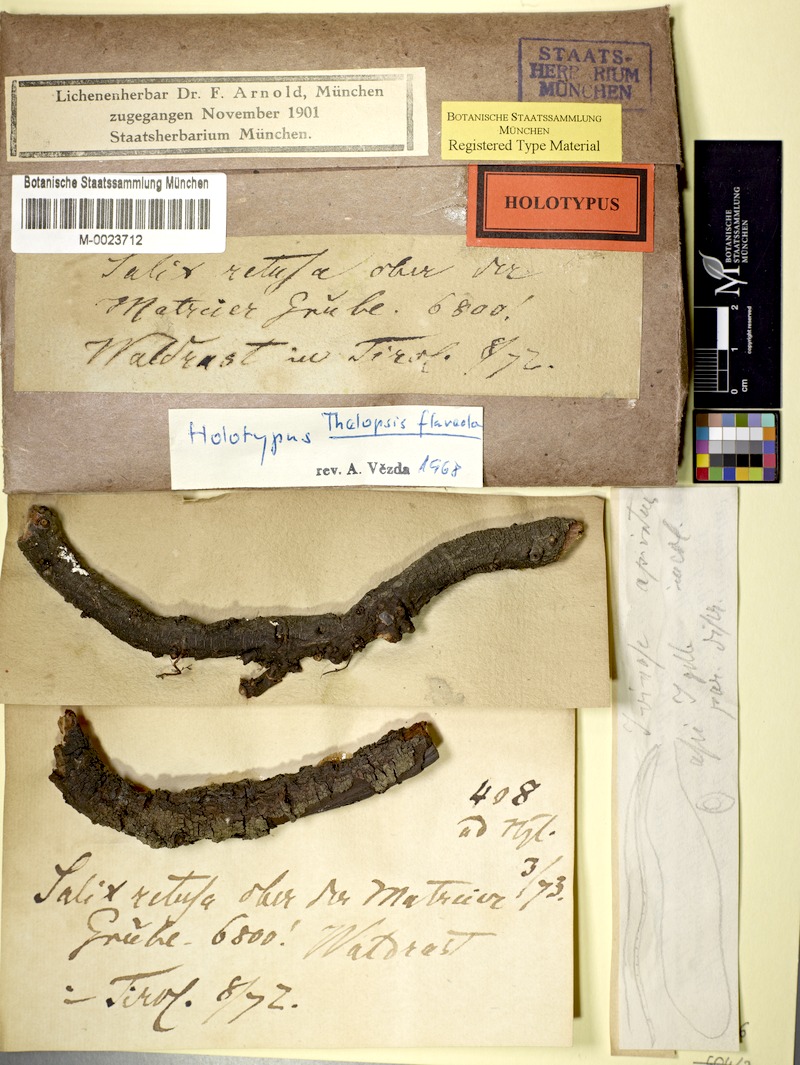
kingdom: Fungi
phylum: Ascomycota
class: Lecanoromycetes
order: Ostropales
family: Stictidaceae
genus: Thelopsis
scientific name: Thelopsis flaveola
